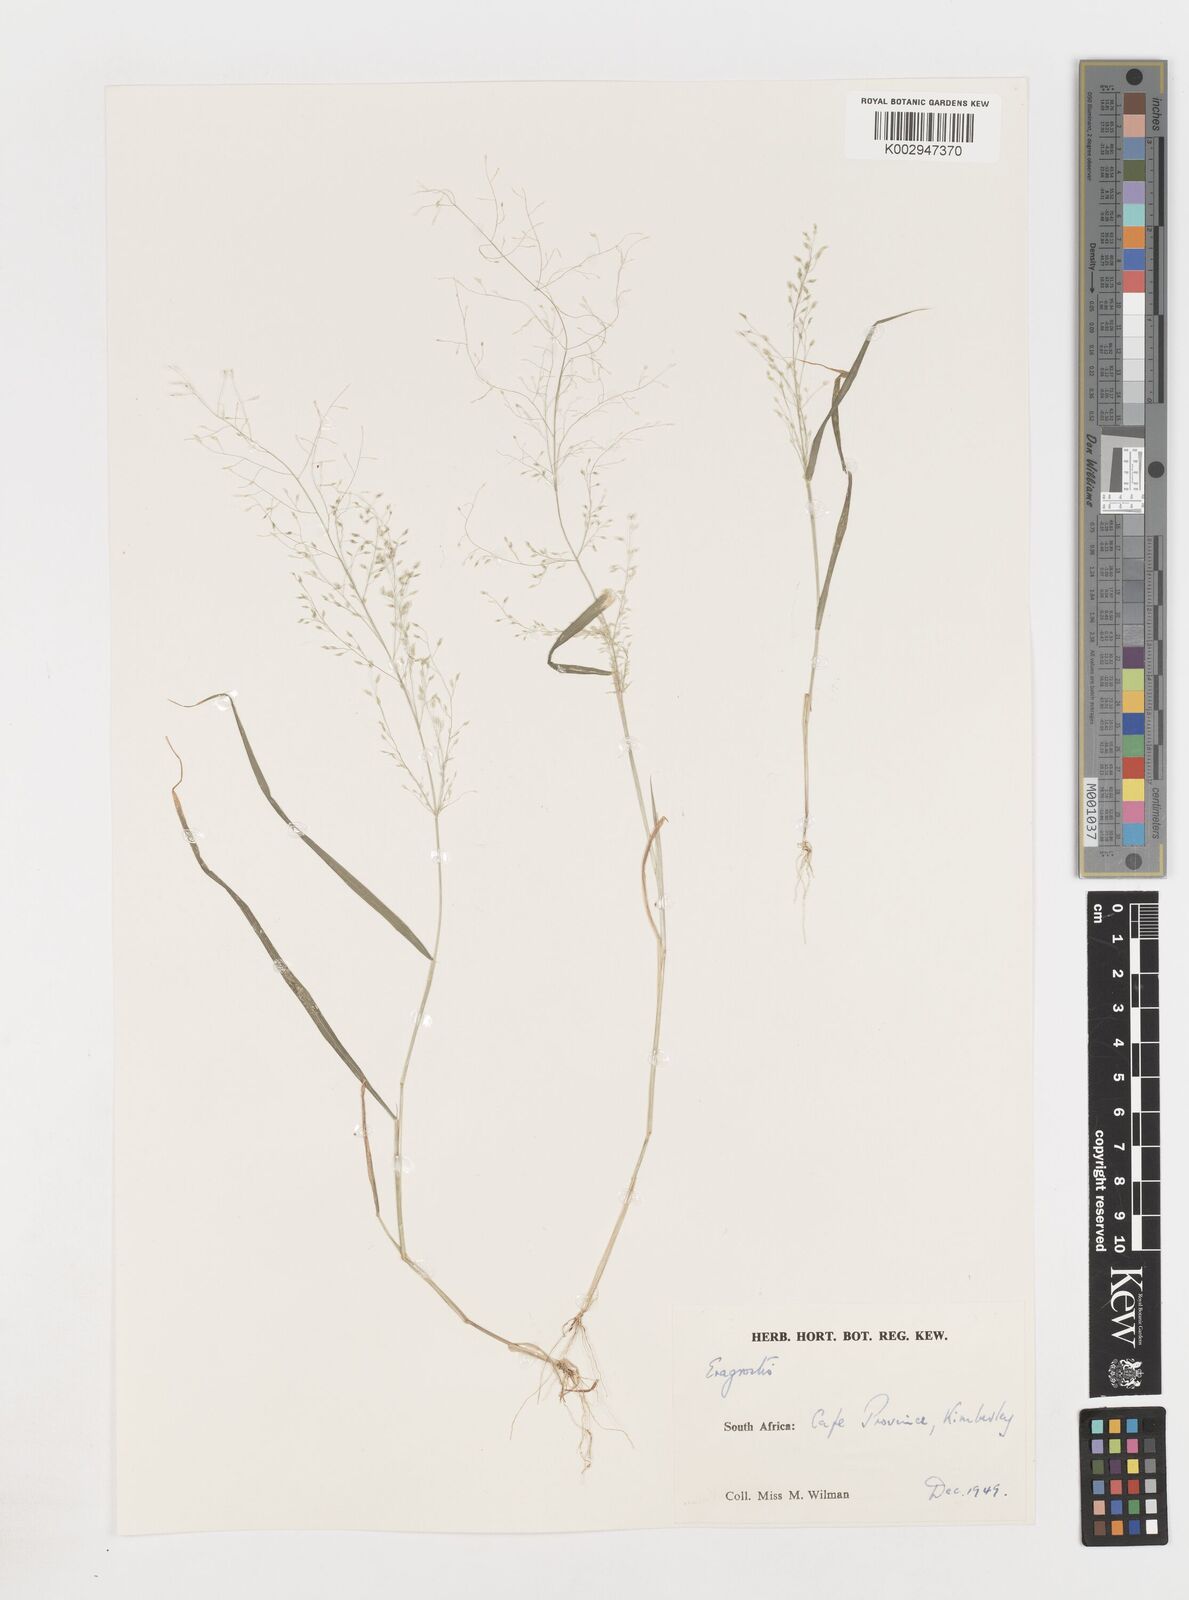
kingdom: Plantae
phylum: Tracheophyta
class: Liliopsida
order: Poales
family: Poaceae
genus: Eragrostis
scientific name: Eragrostis
